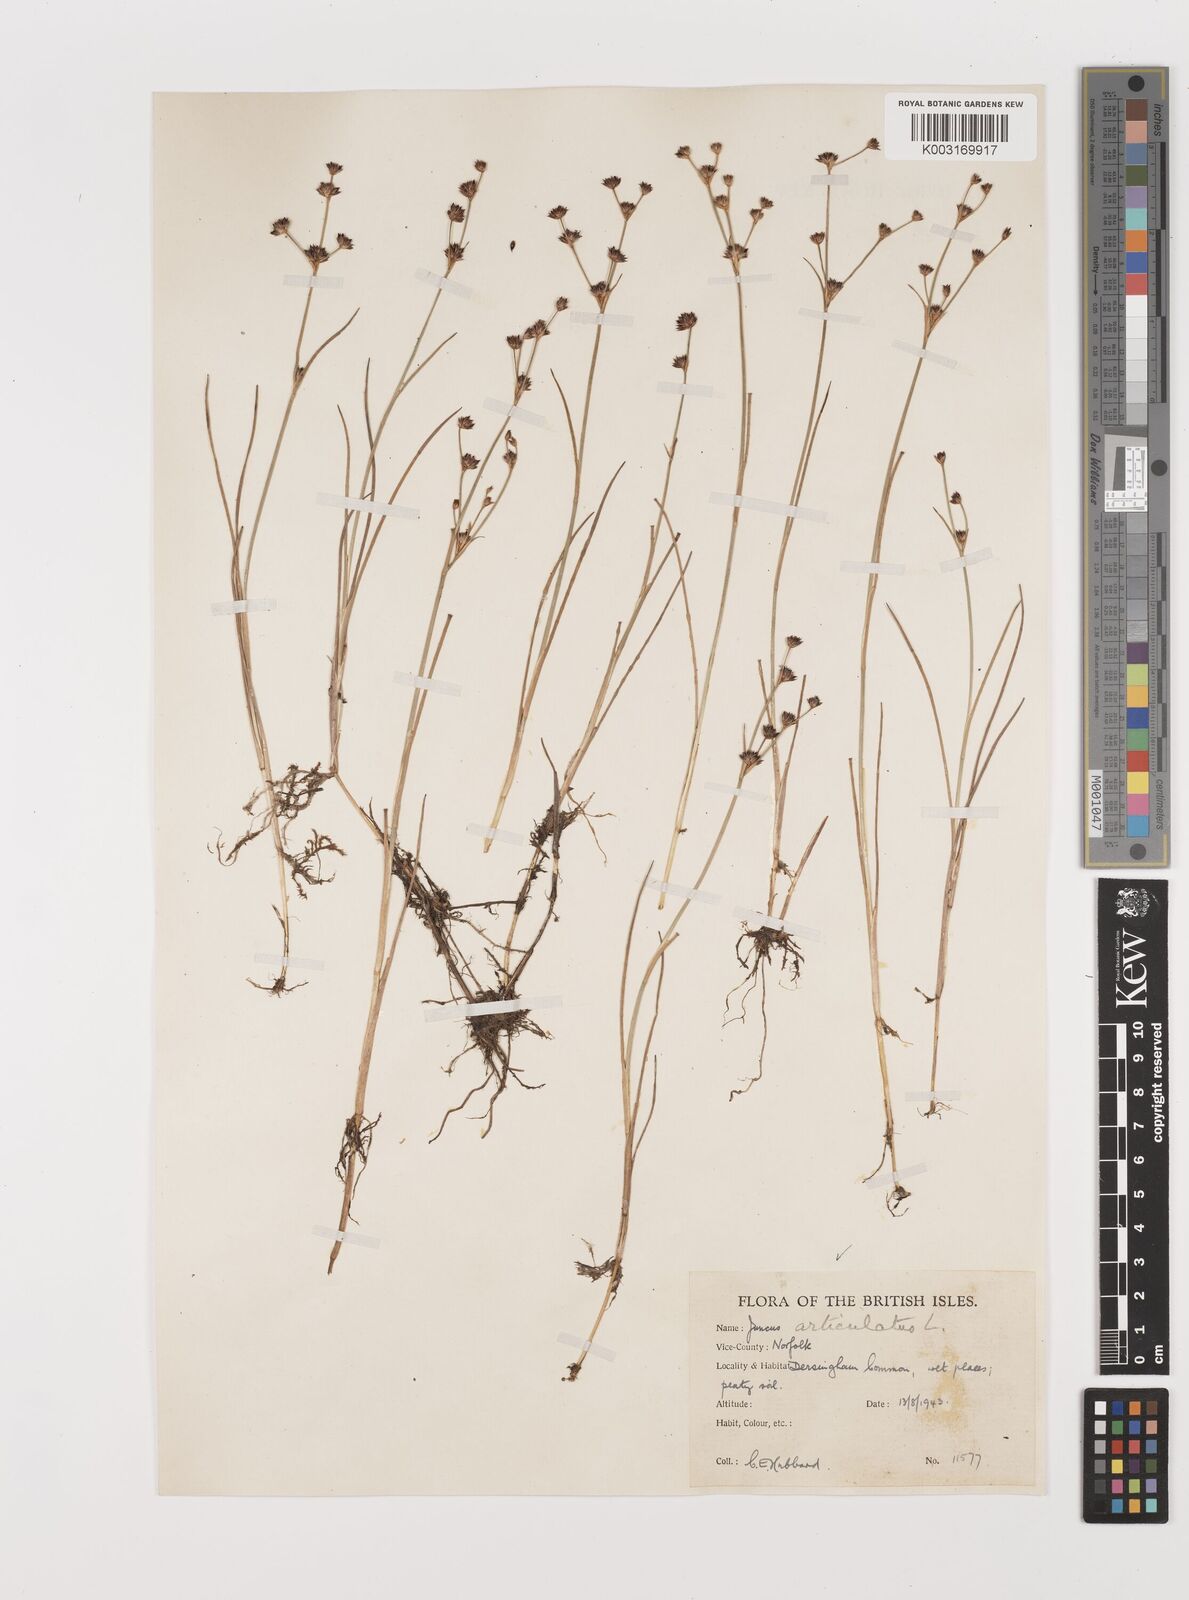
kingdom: Plantae
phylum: Tracheophyta
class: Liliopsida
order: Poales
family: Juncaceae
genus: Juncus
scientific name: Juncus articulatus
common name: Jointed rush
